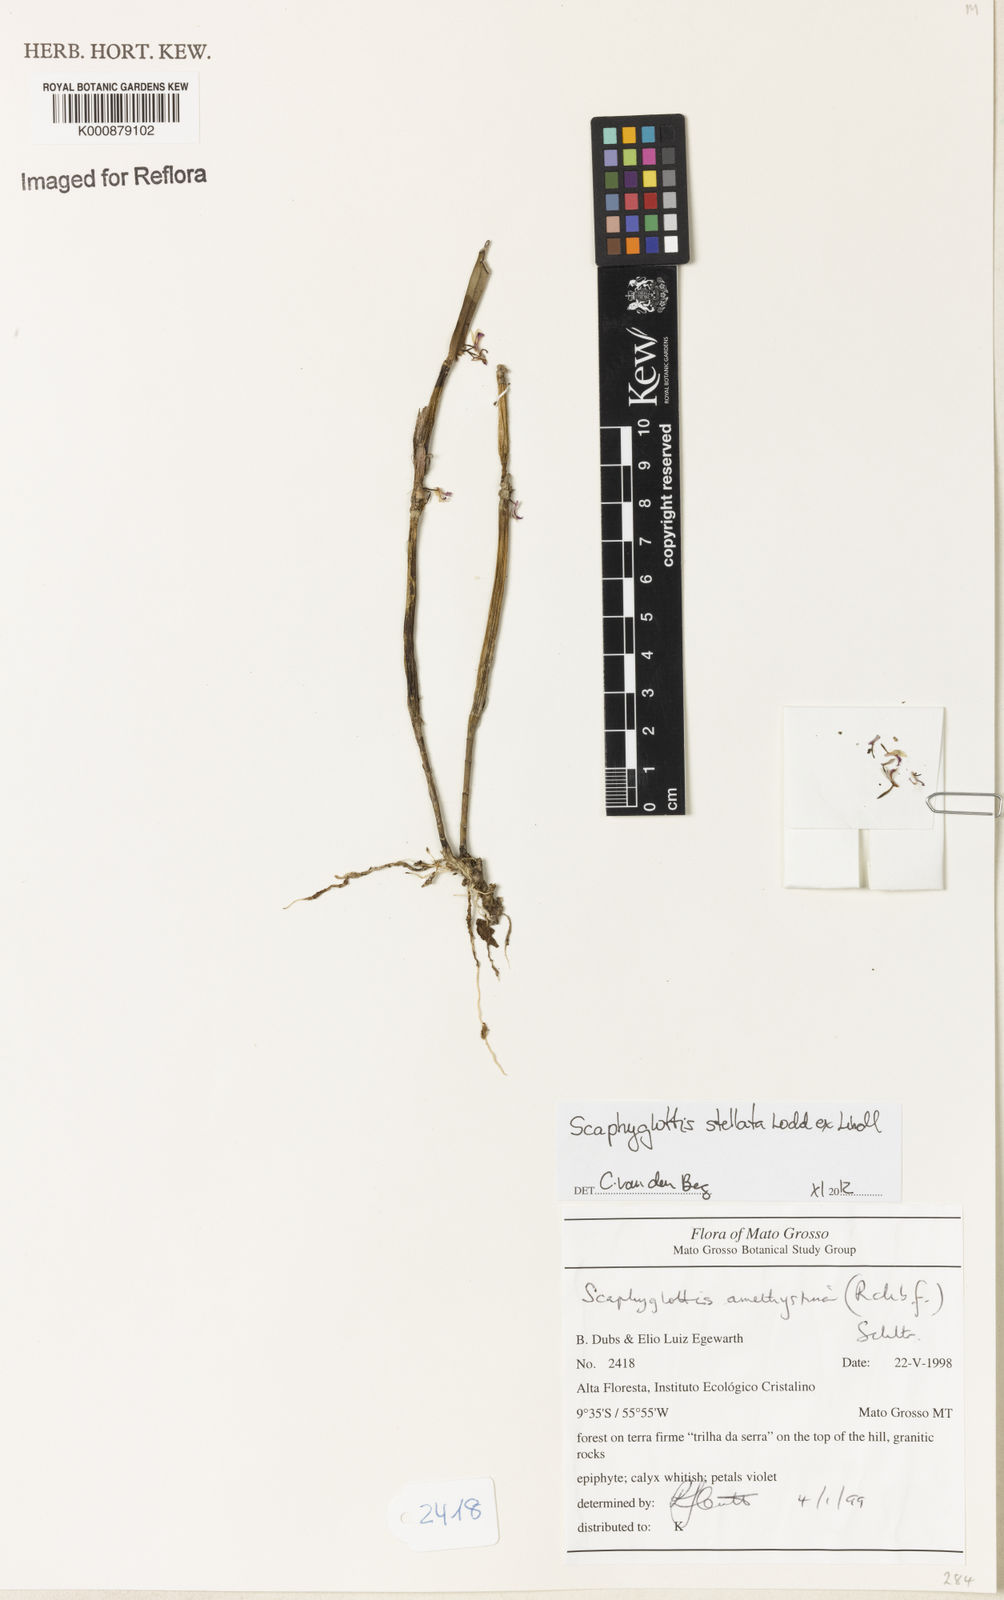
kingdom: Plantae
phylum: Tracheophyta
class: Liliopsida
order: Asparagales
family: Orchidaceae
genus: Scaphyglottis
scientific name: Scaphyglottis stellata
